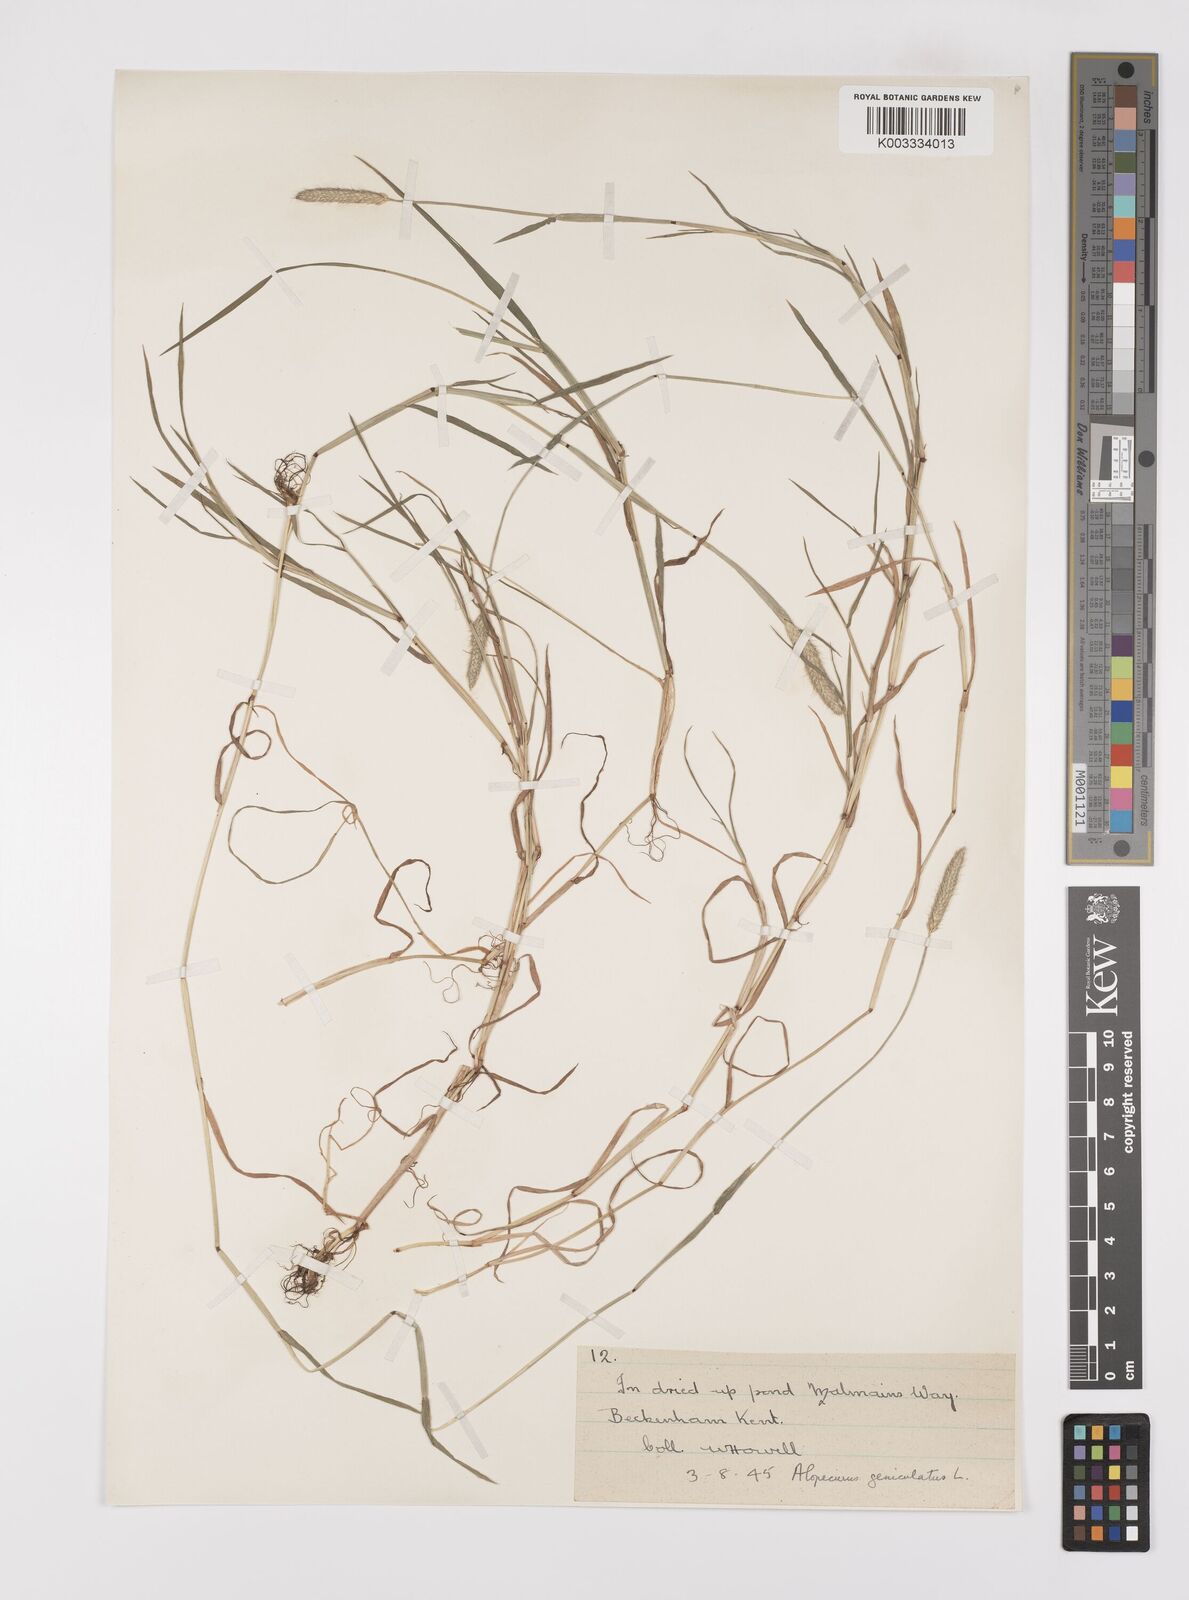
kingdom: Plantae
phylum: Tracheophyta
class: Liliopsida
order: Poales
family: Poaceae
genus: Alopecurus
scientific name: Alopecurus geniculatus
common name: Water foxtail
